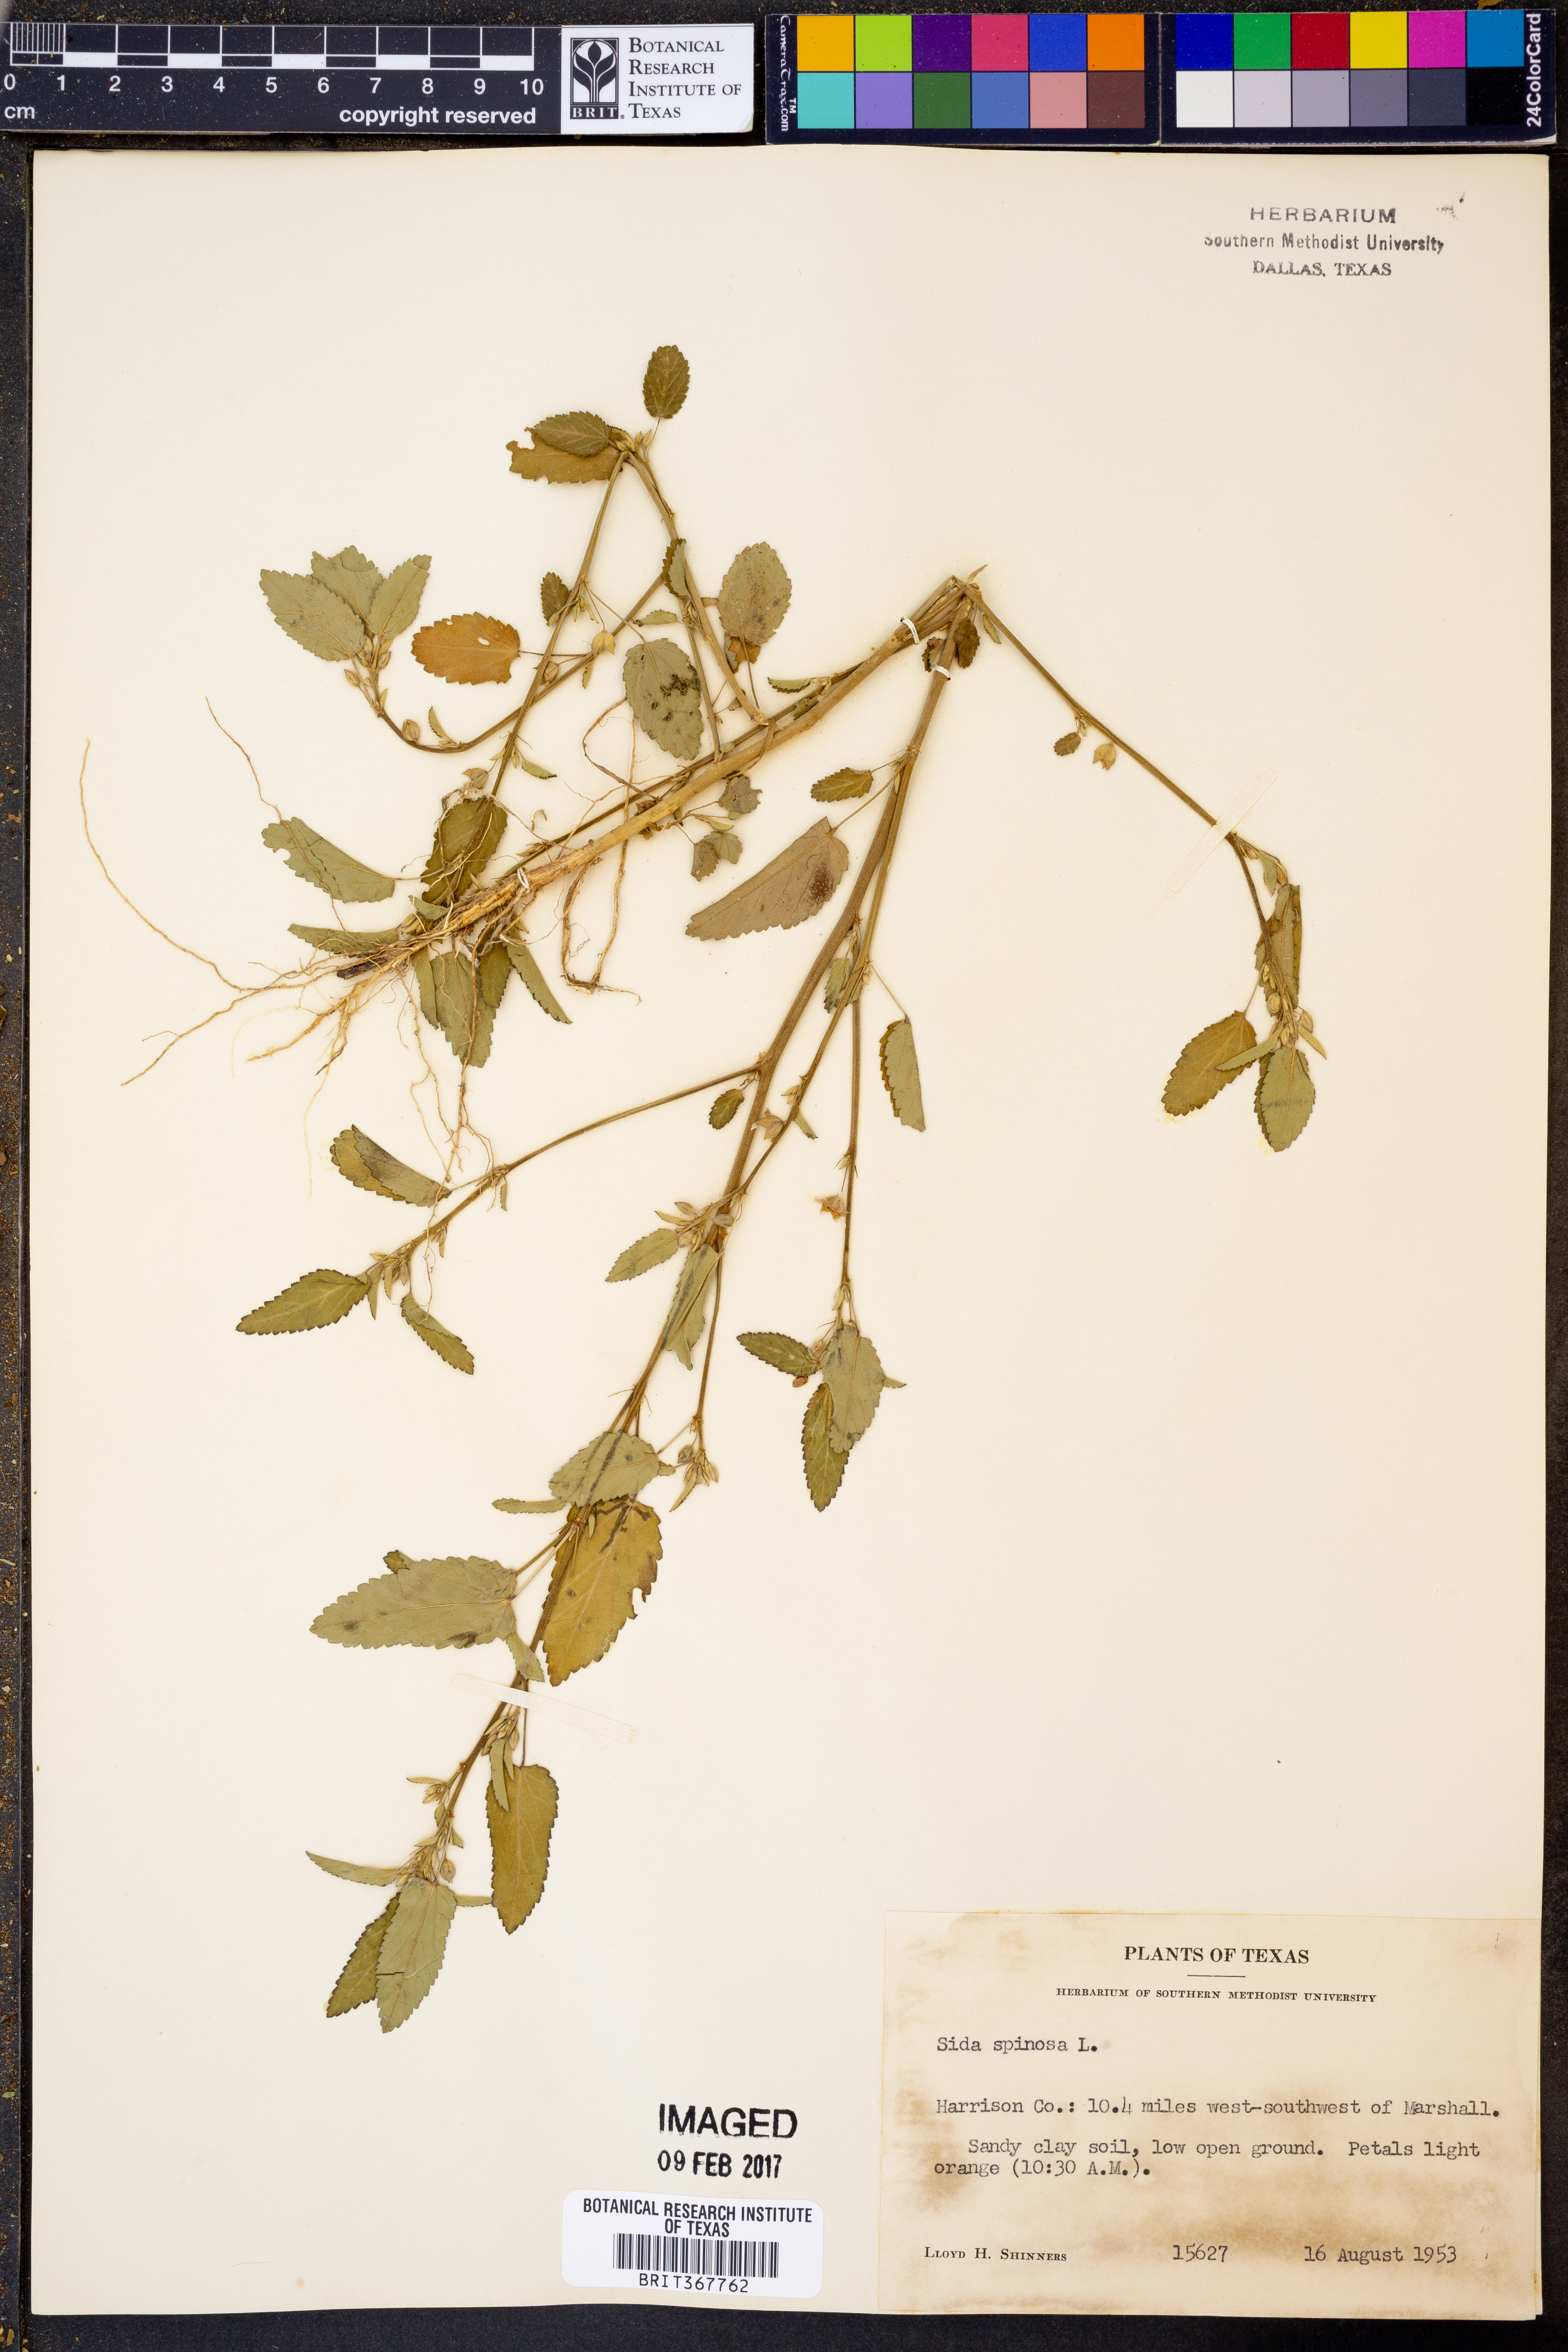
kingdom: Plantae
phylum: Tracheophyta
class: Magnoliopsida
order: Malvales
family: Malvaceae
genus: Sida
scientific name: Sida spinosa
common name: Prickly fanpetals
